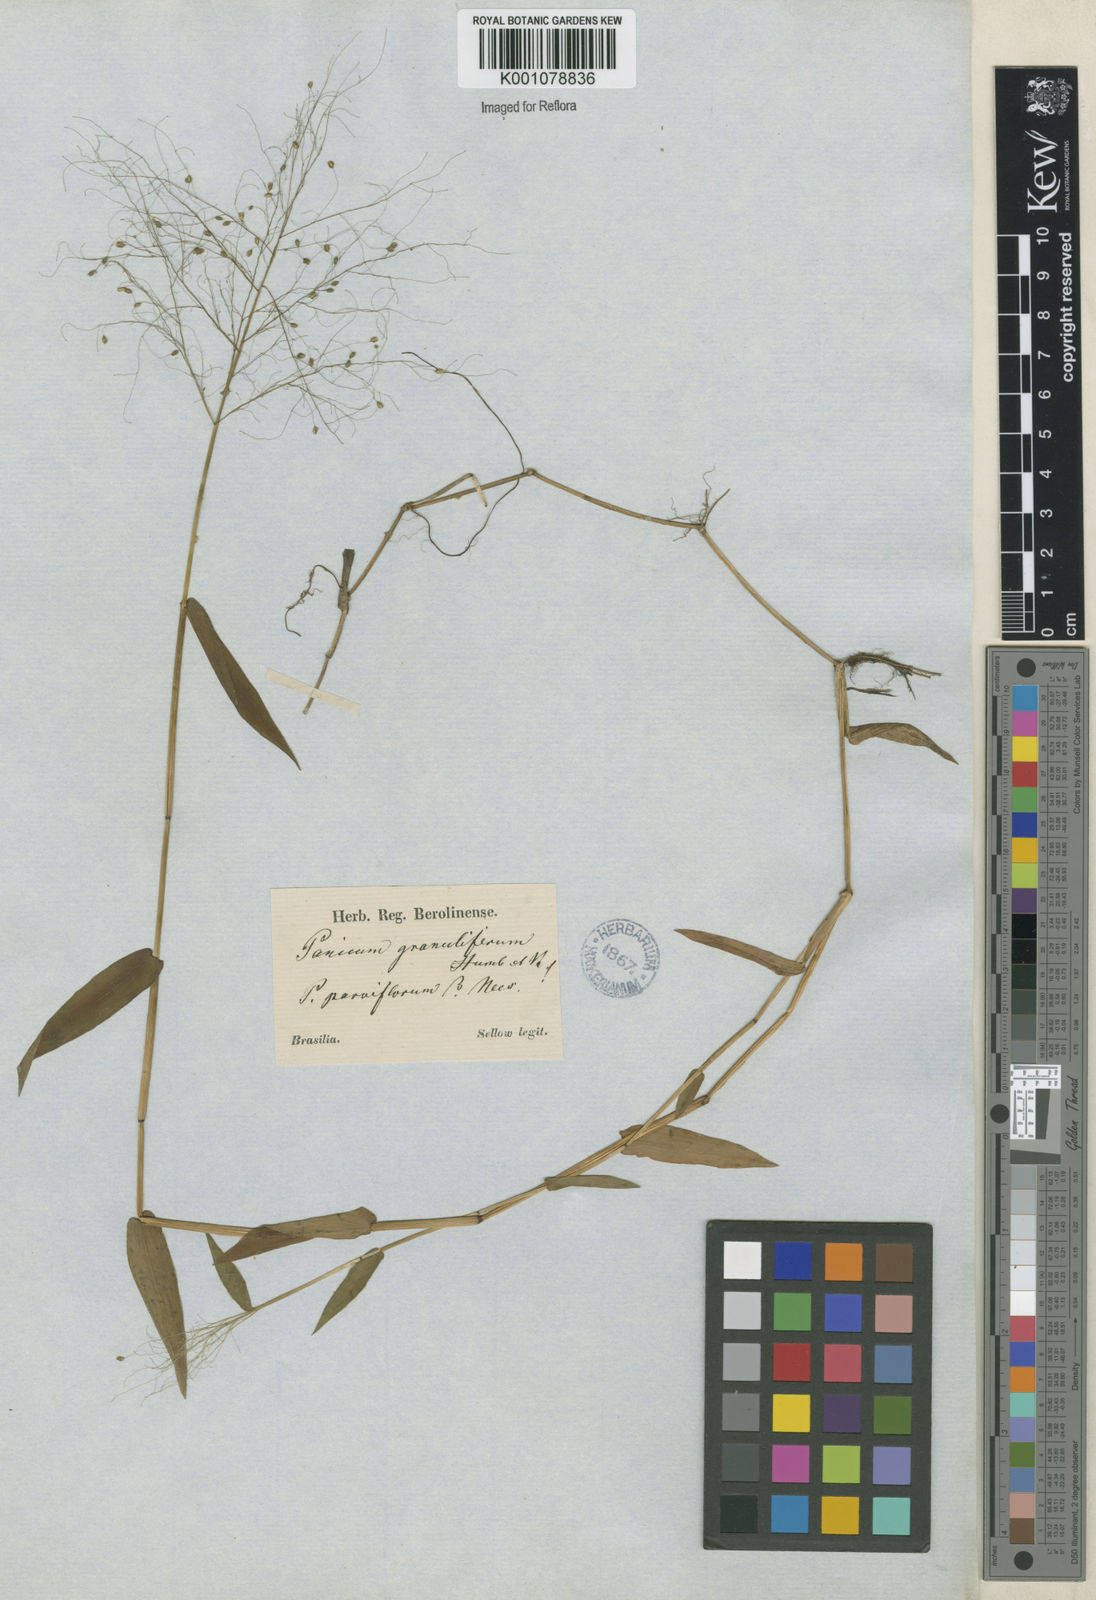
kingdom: Plantae
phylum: Tracheophyta
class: Liliopsida
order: Poales
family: Poaceae
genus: Trichanthecium
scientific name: Trichanthecium schwackeanum
